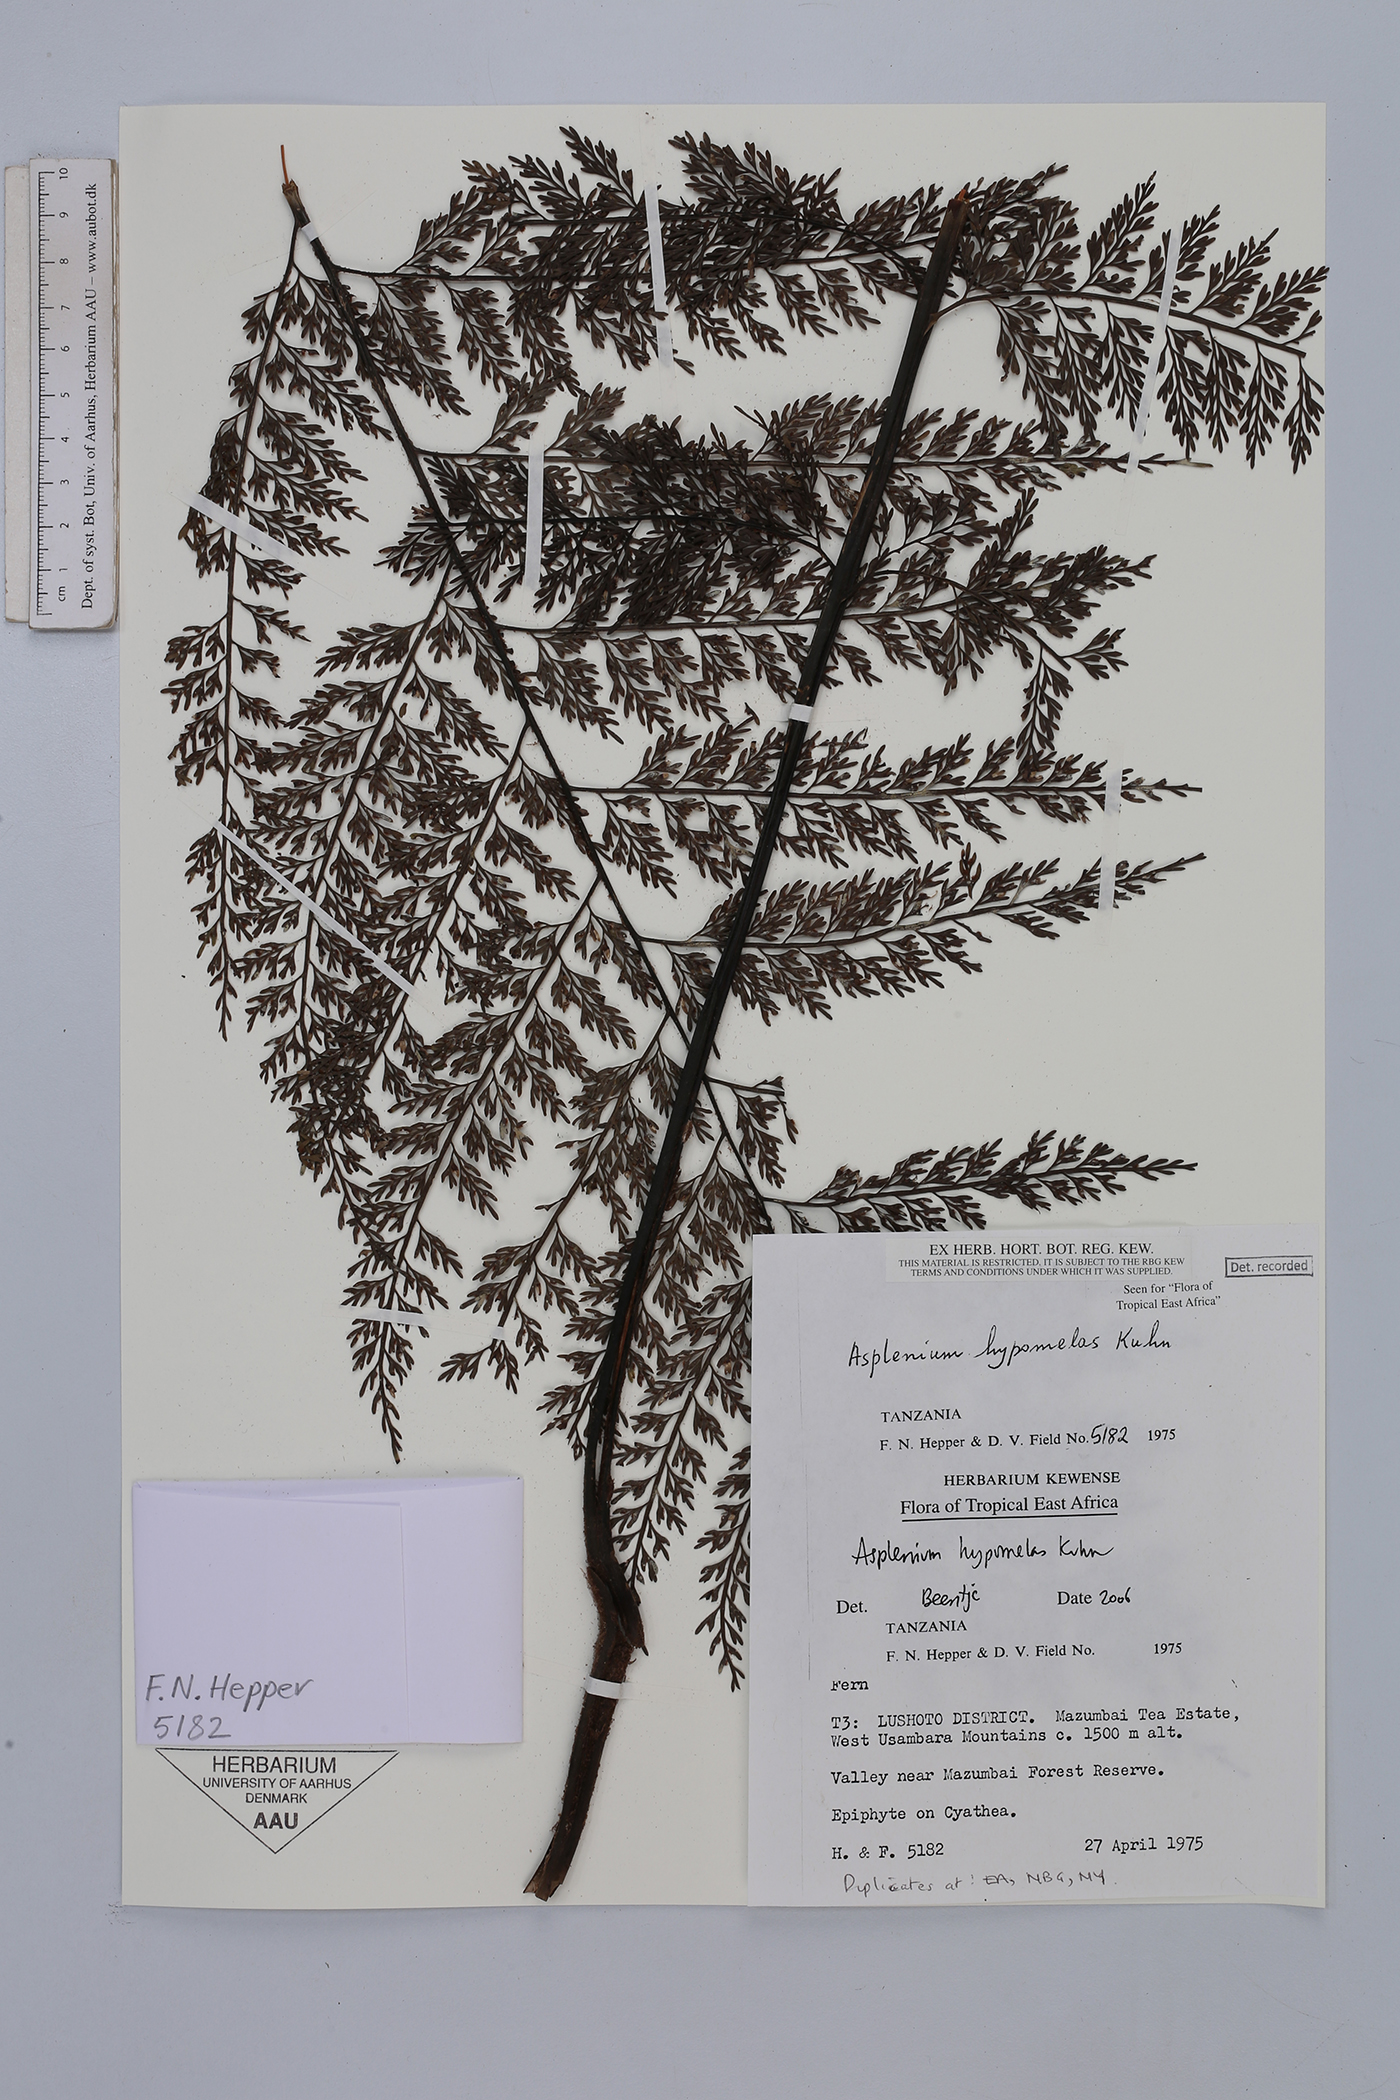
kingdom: Plantae
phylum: Tracheophyta
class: Polypodiopsida
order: Polypodiales
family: Aspleniaceae
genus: Asplenium
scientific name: Asplenium hypomelas
